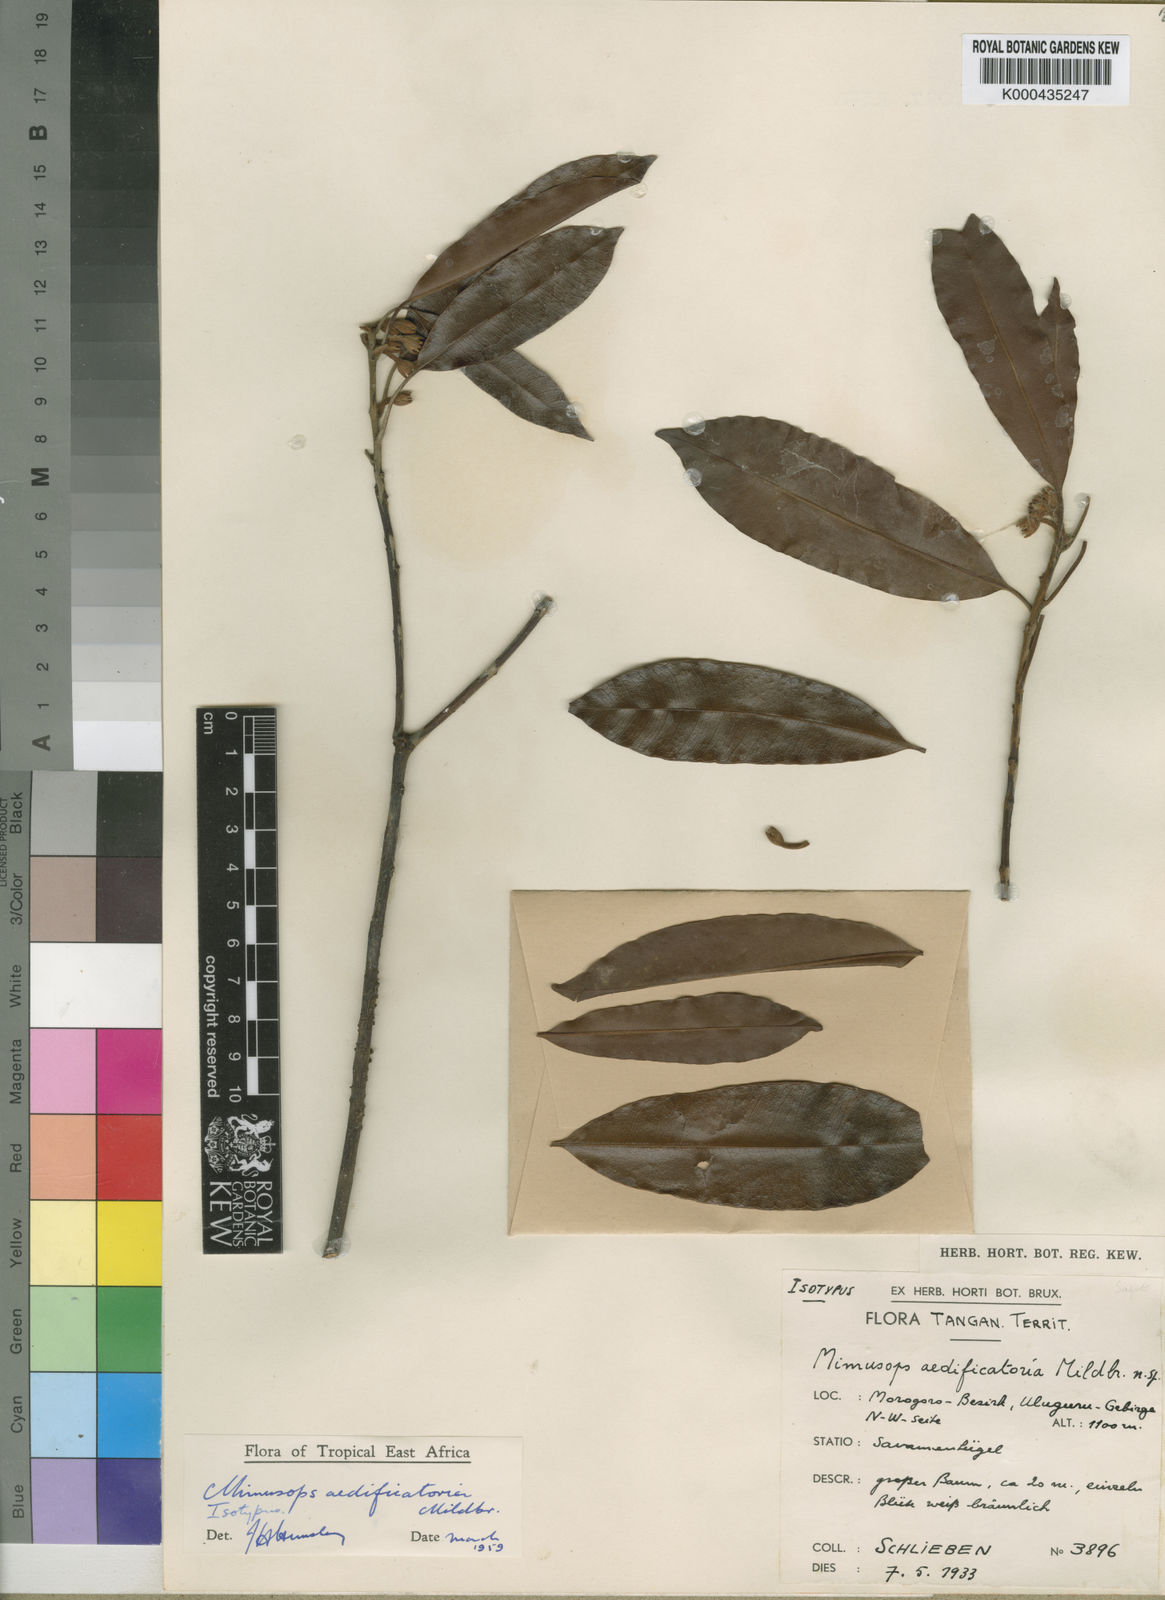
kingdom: Plantae
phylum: Tracheophyta
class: Magnoliopsida
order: Ericales
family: Sapotaceae
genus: Mimusops
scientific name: Mimusops aedificatoria
